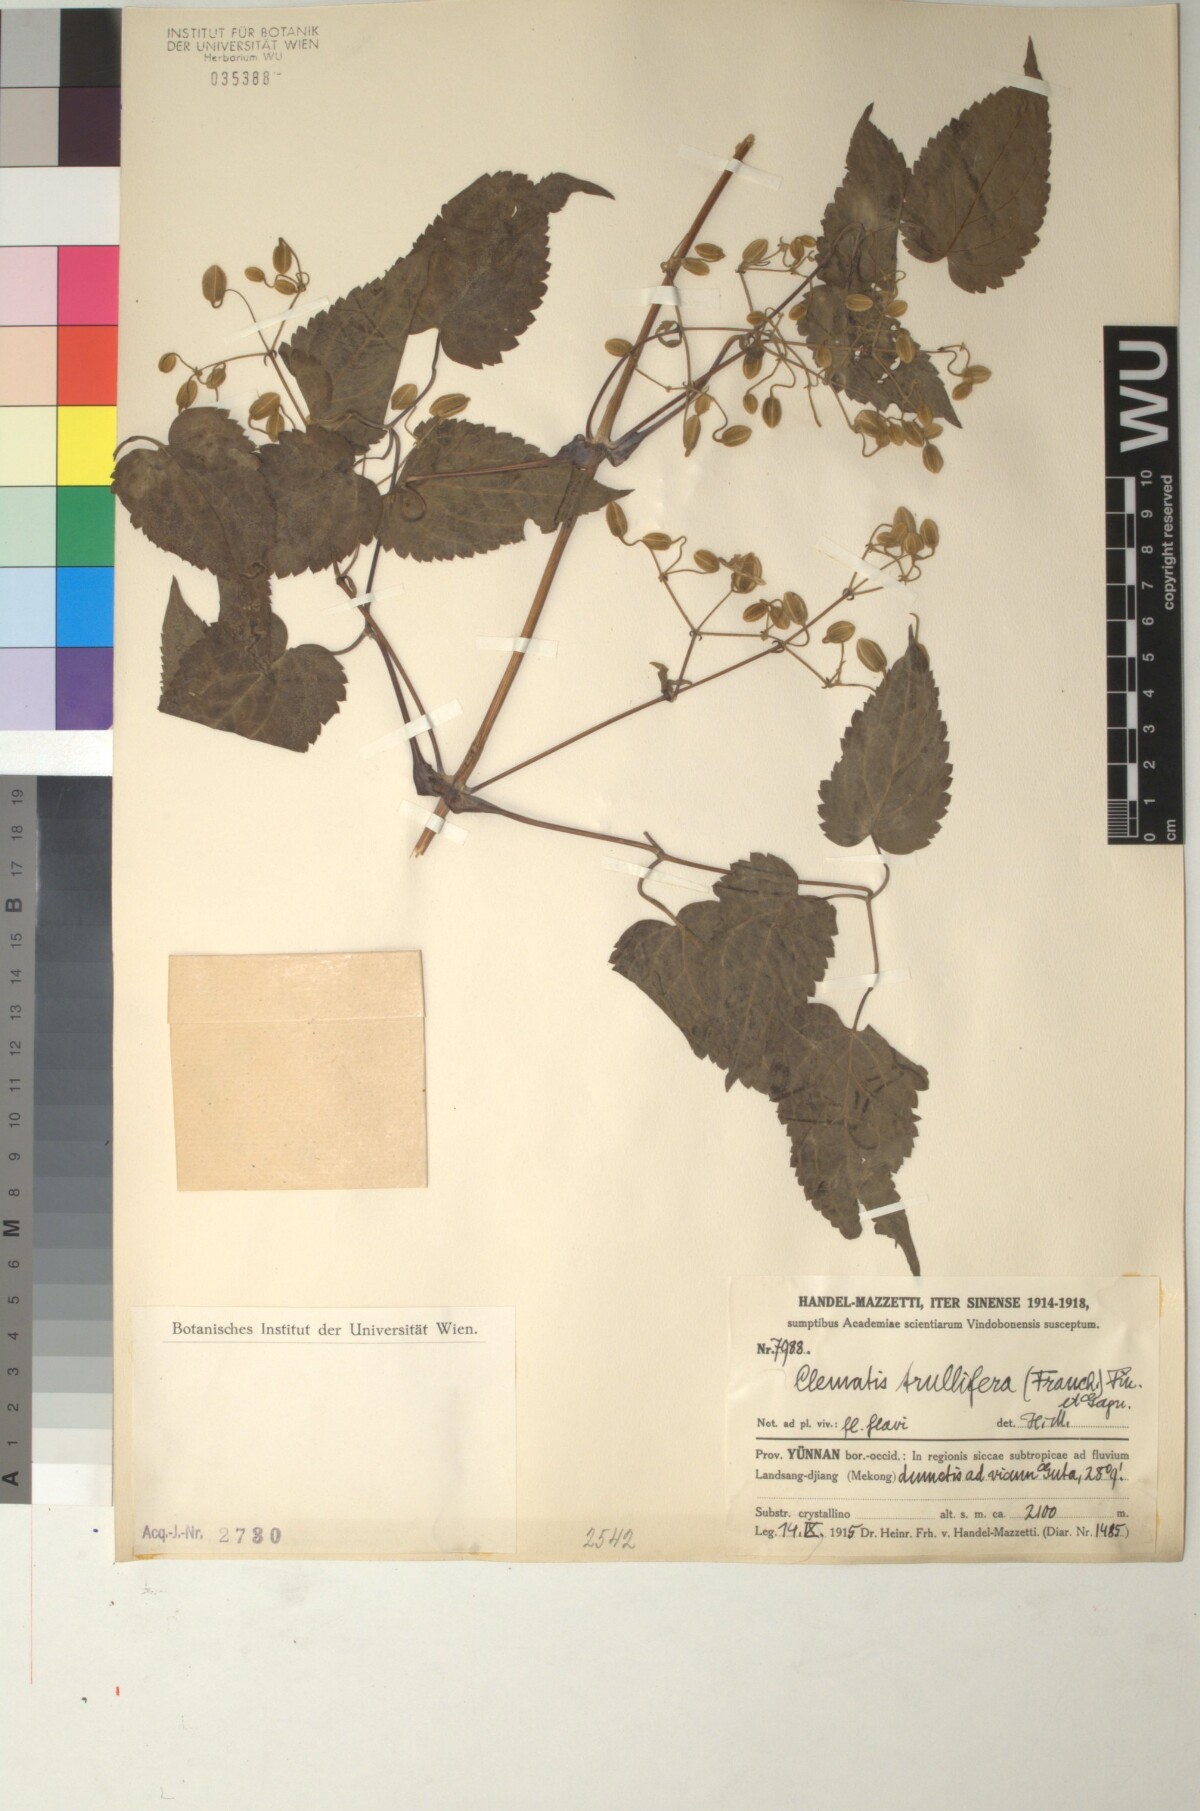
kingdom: Plantae
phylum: Tracheophyta
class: Magnoliopsida
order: Ranunculales
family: Ranunculaceae
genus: Clematis
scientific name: Clematis connata
